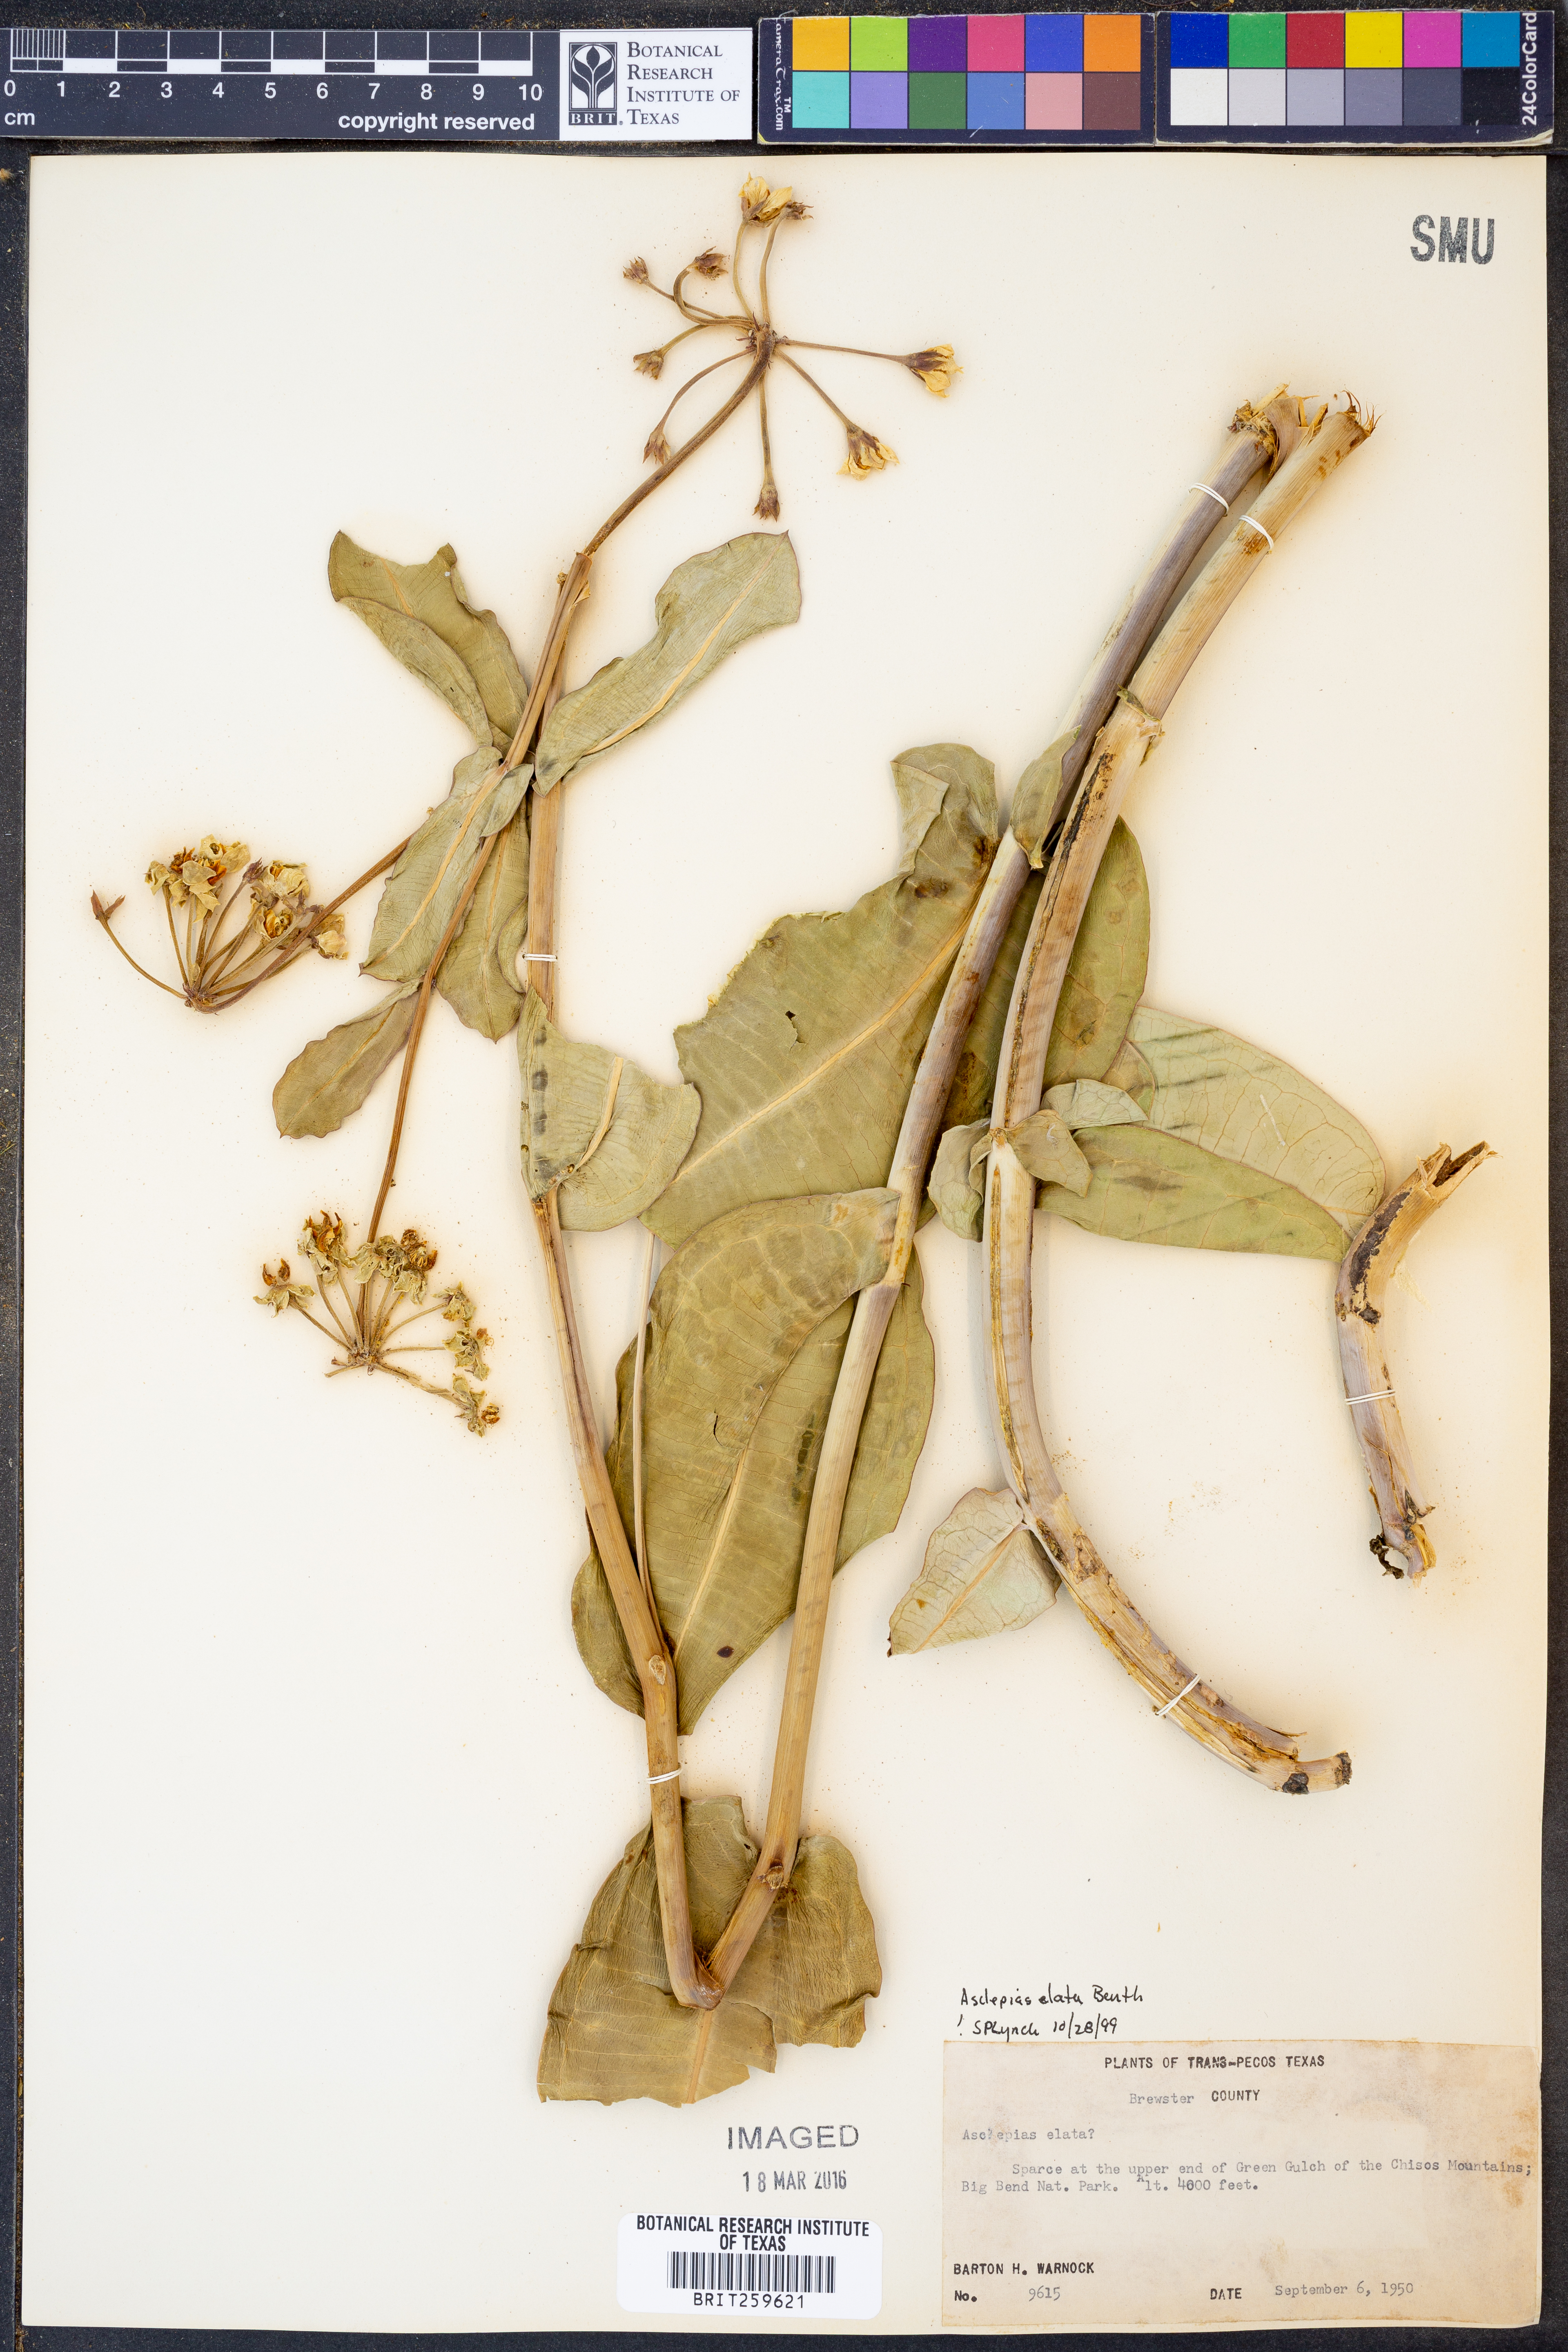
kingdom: Plantae
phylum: Tracheophyta
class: Magnoliopsida
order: Gentianales
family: Apocynaceae
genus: Asclepias
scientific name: Asclepias elata
